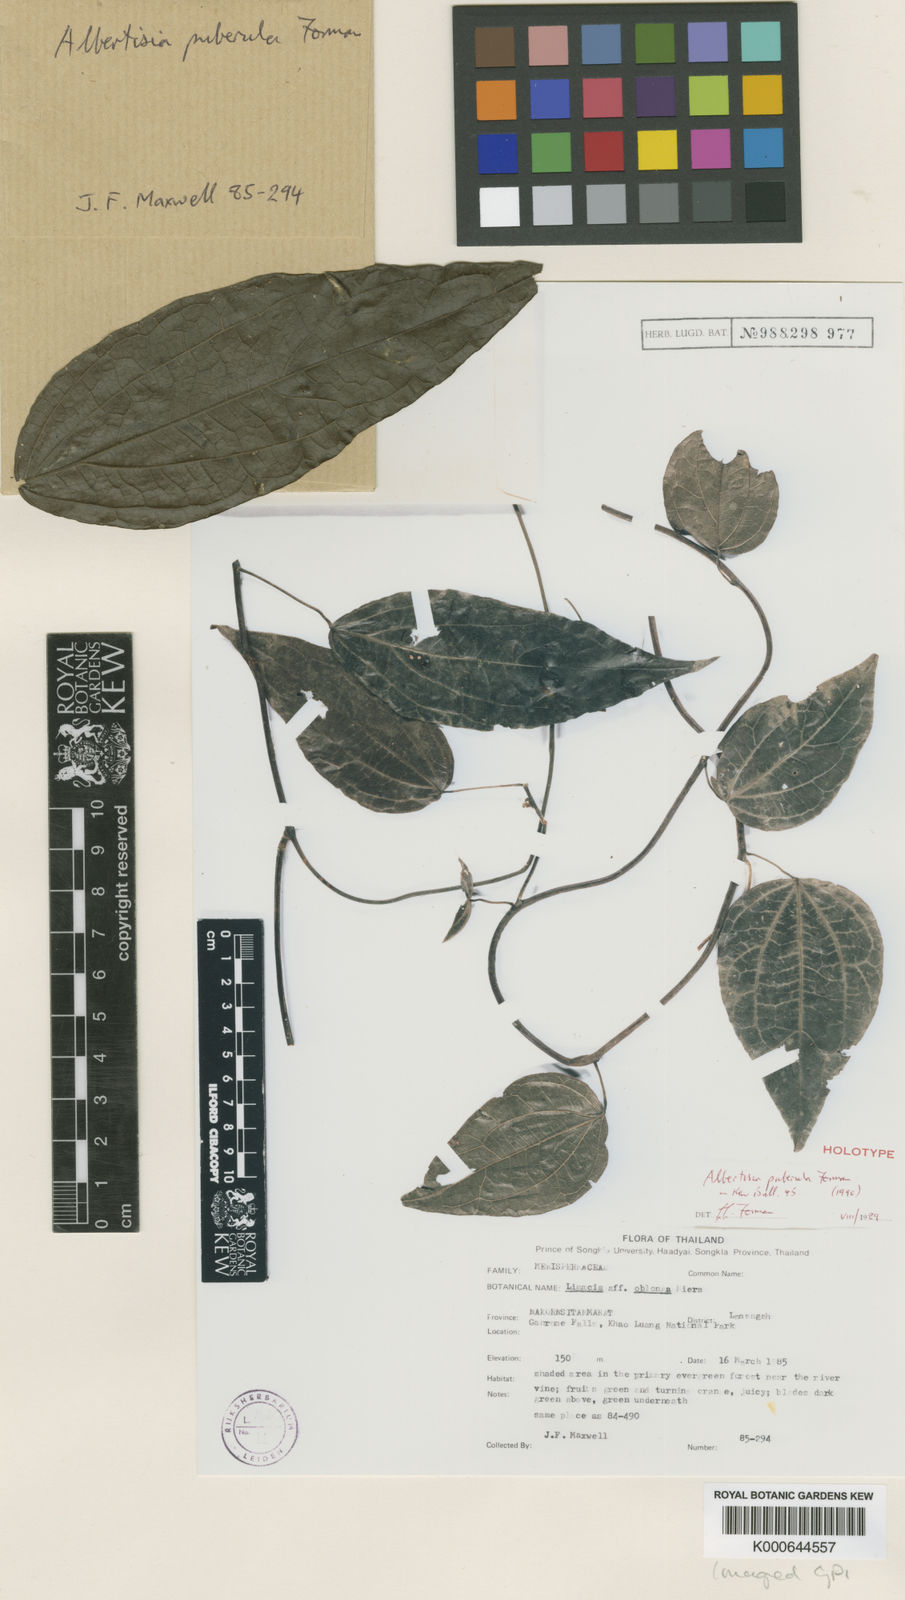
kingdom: Plantae
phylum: Tracheophyta
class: Magnoliopsida
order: Ranunculales
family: Menispermaceae
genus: Albertisia
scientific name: Albertisia puberula
